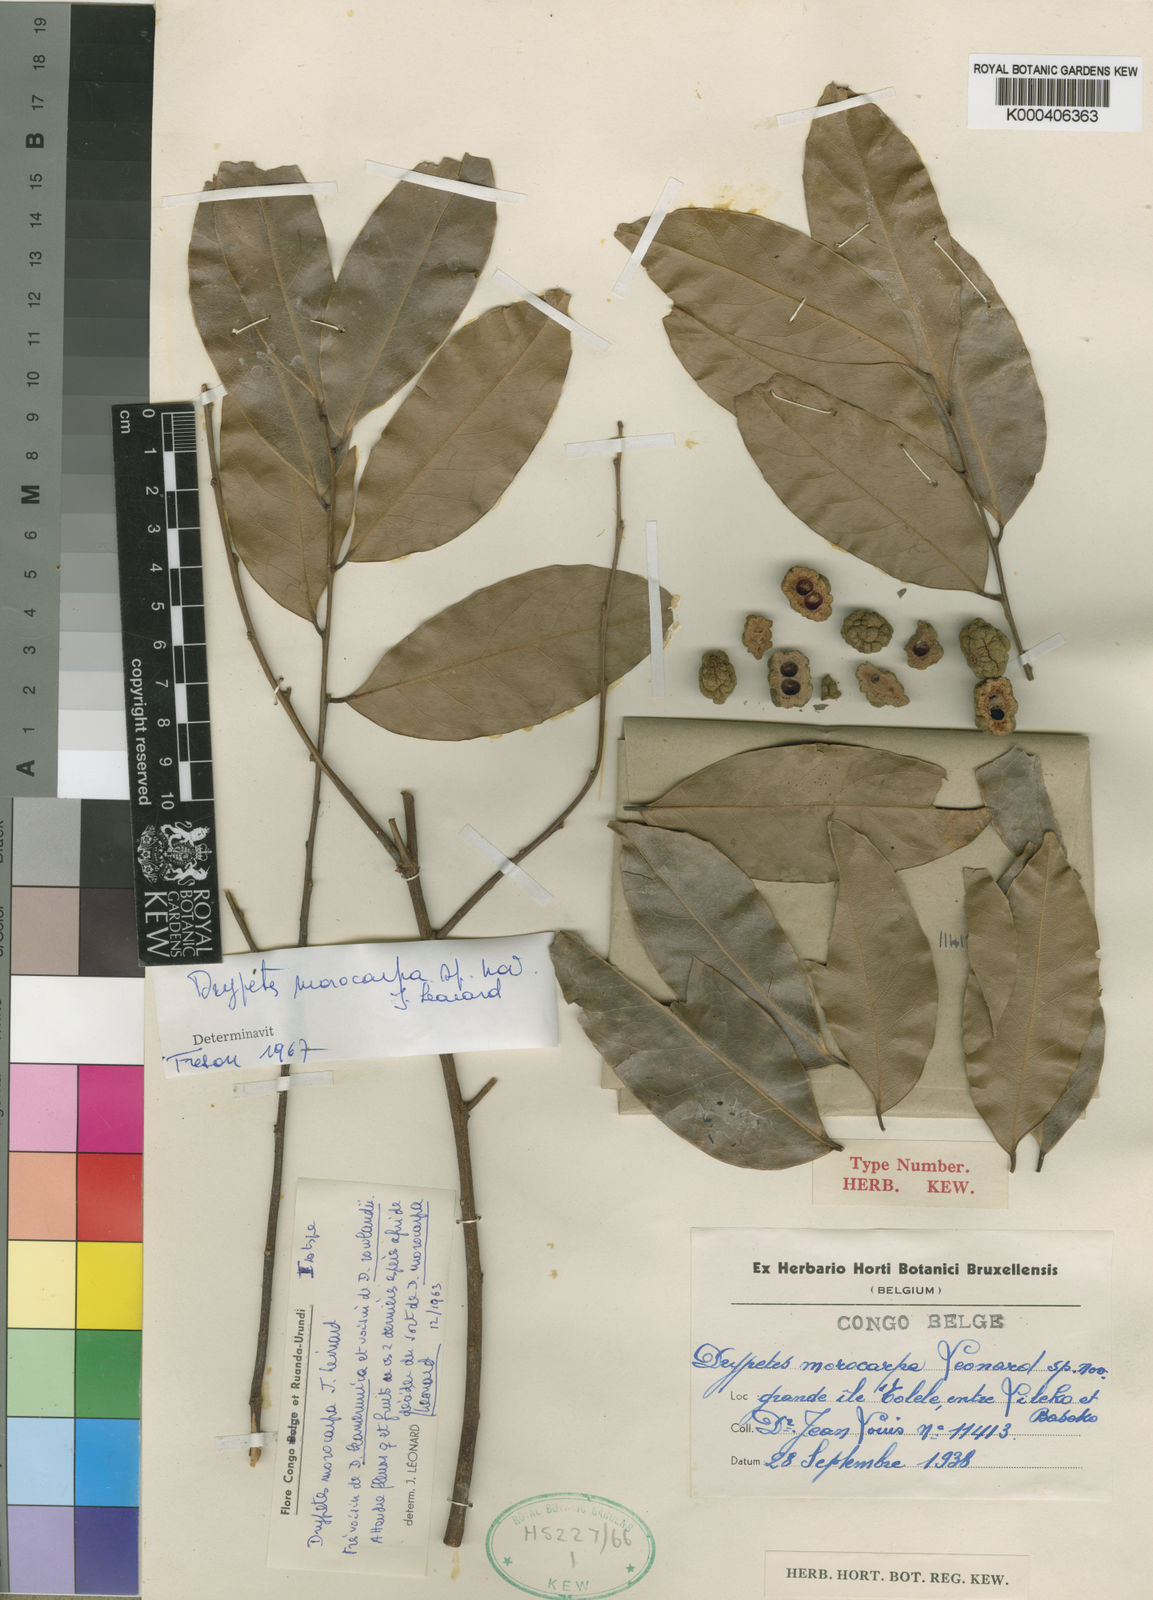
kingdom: Plantae
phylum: Tracheophyta
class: Magnoliopsida
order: Malpighiales
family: Putranjivaceae
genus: Drypetes
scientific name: Drypetes
